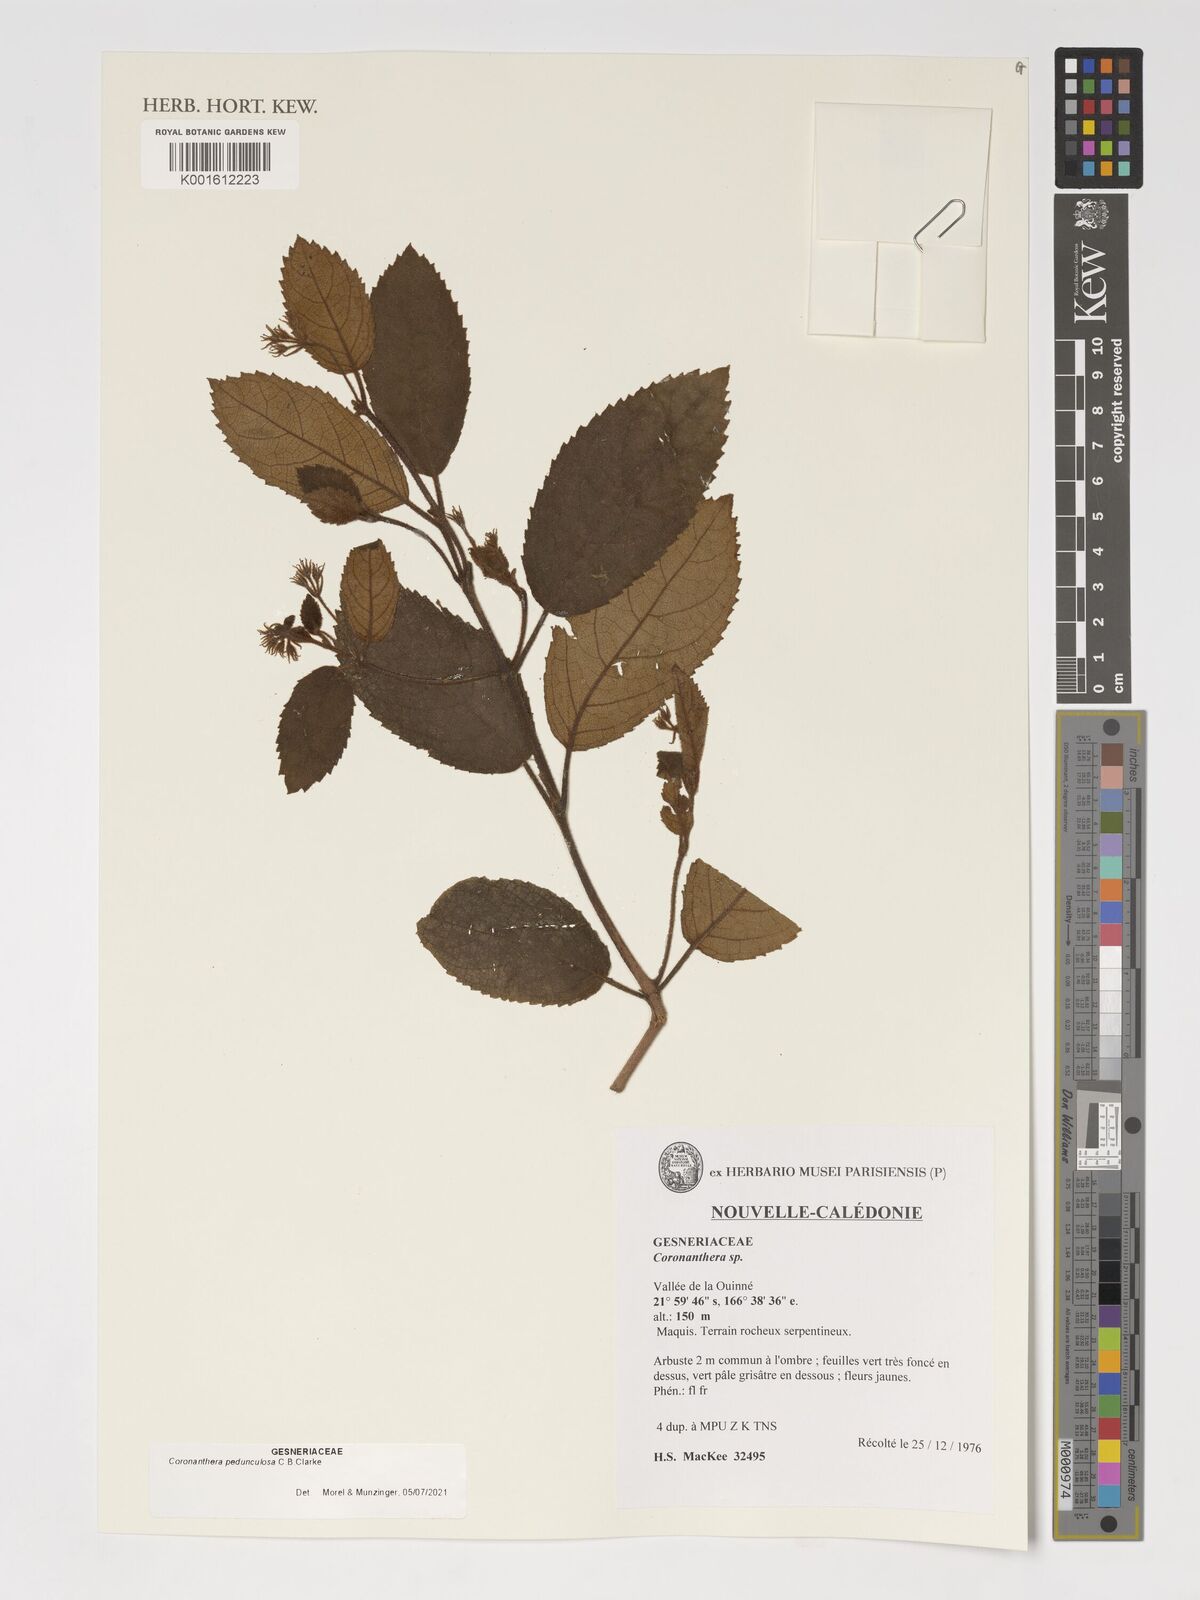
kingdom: Plantae
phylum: Tracheophyta
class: Magnoliopsida
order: Lamiales
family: Gesneriaceae
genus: Coronanthera
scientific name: Coronanthera
